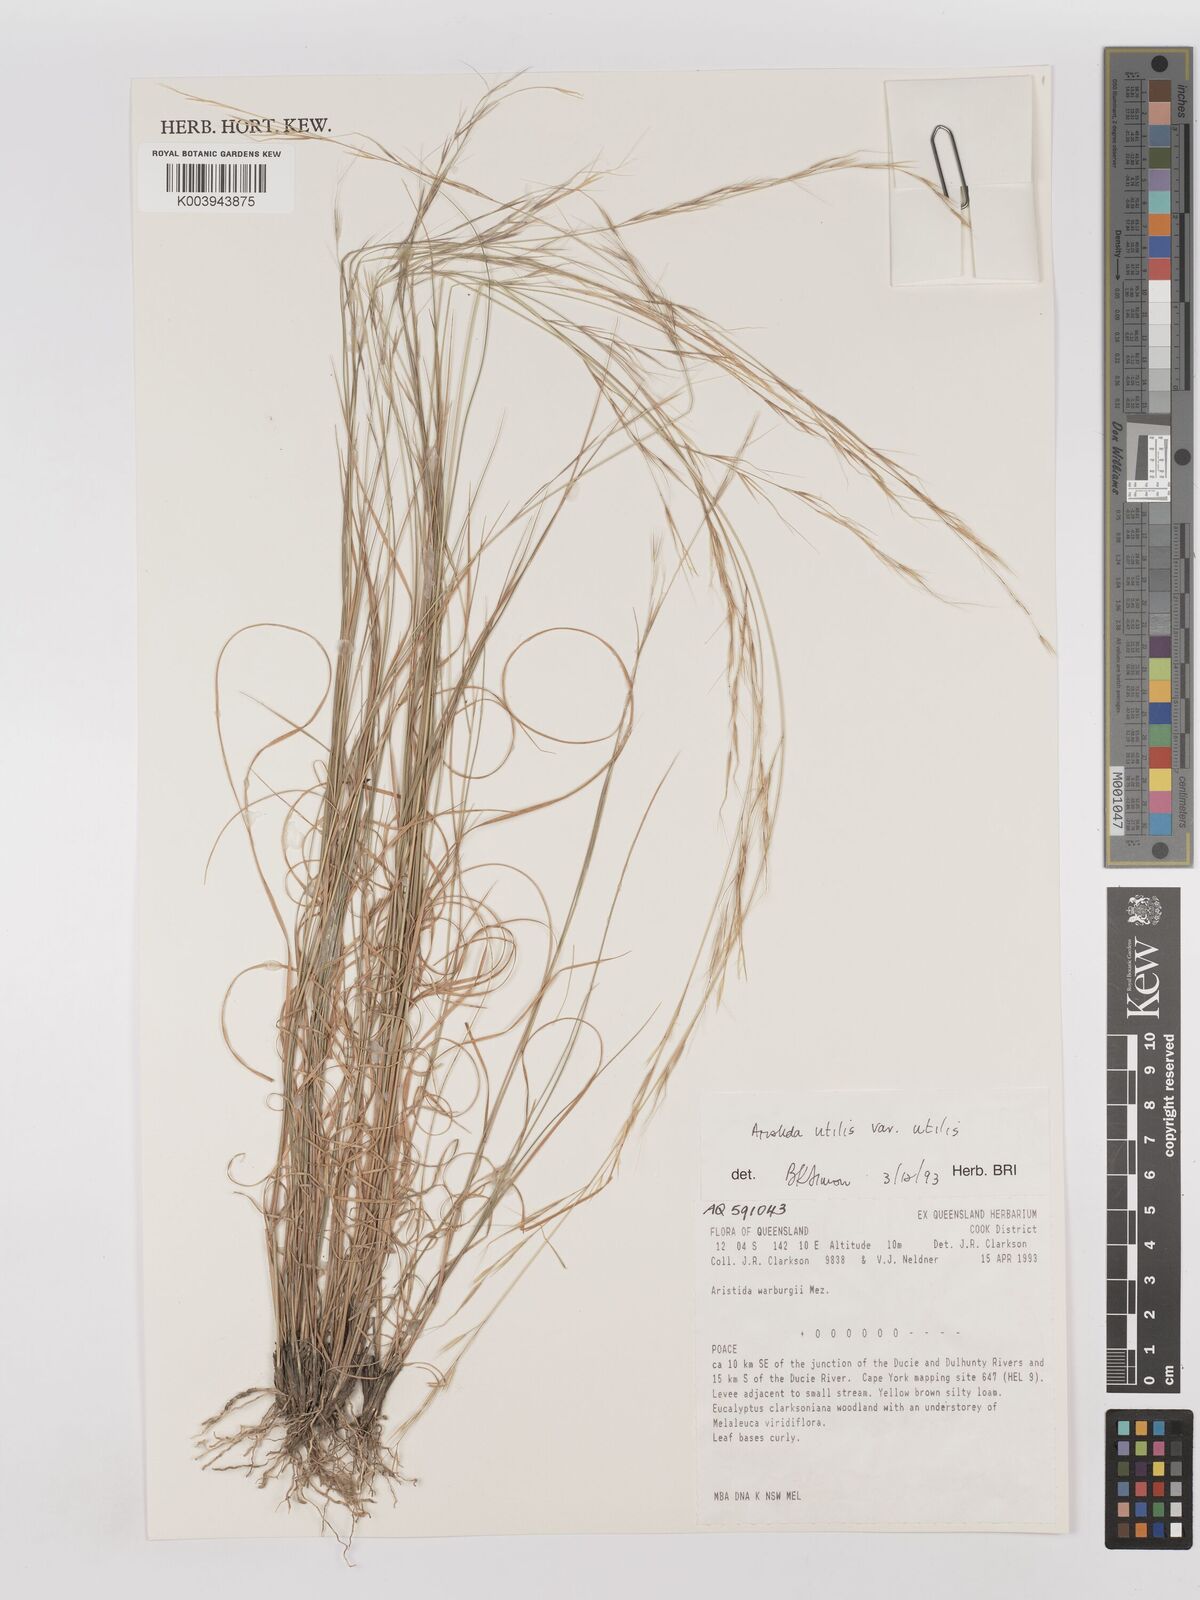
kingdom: Plantae
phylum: Tracheophyta
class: Liliopsida
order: Poales
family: Poaceae
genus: Aristida
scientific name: Aristida utilis
